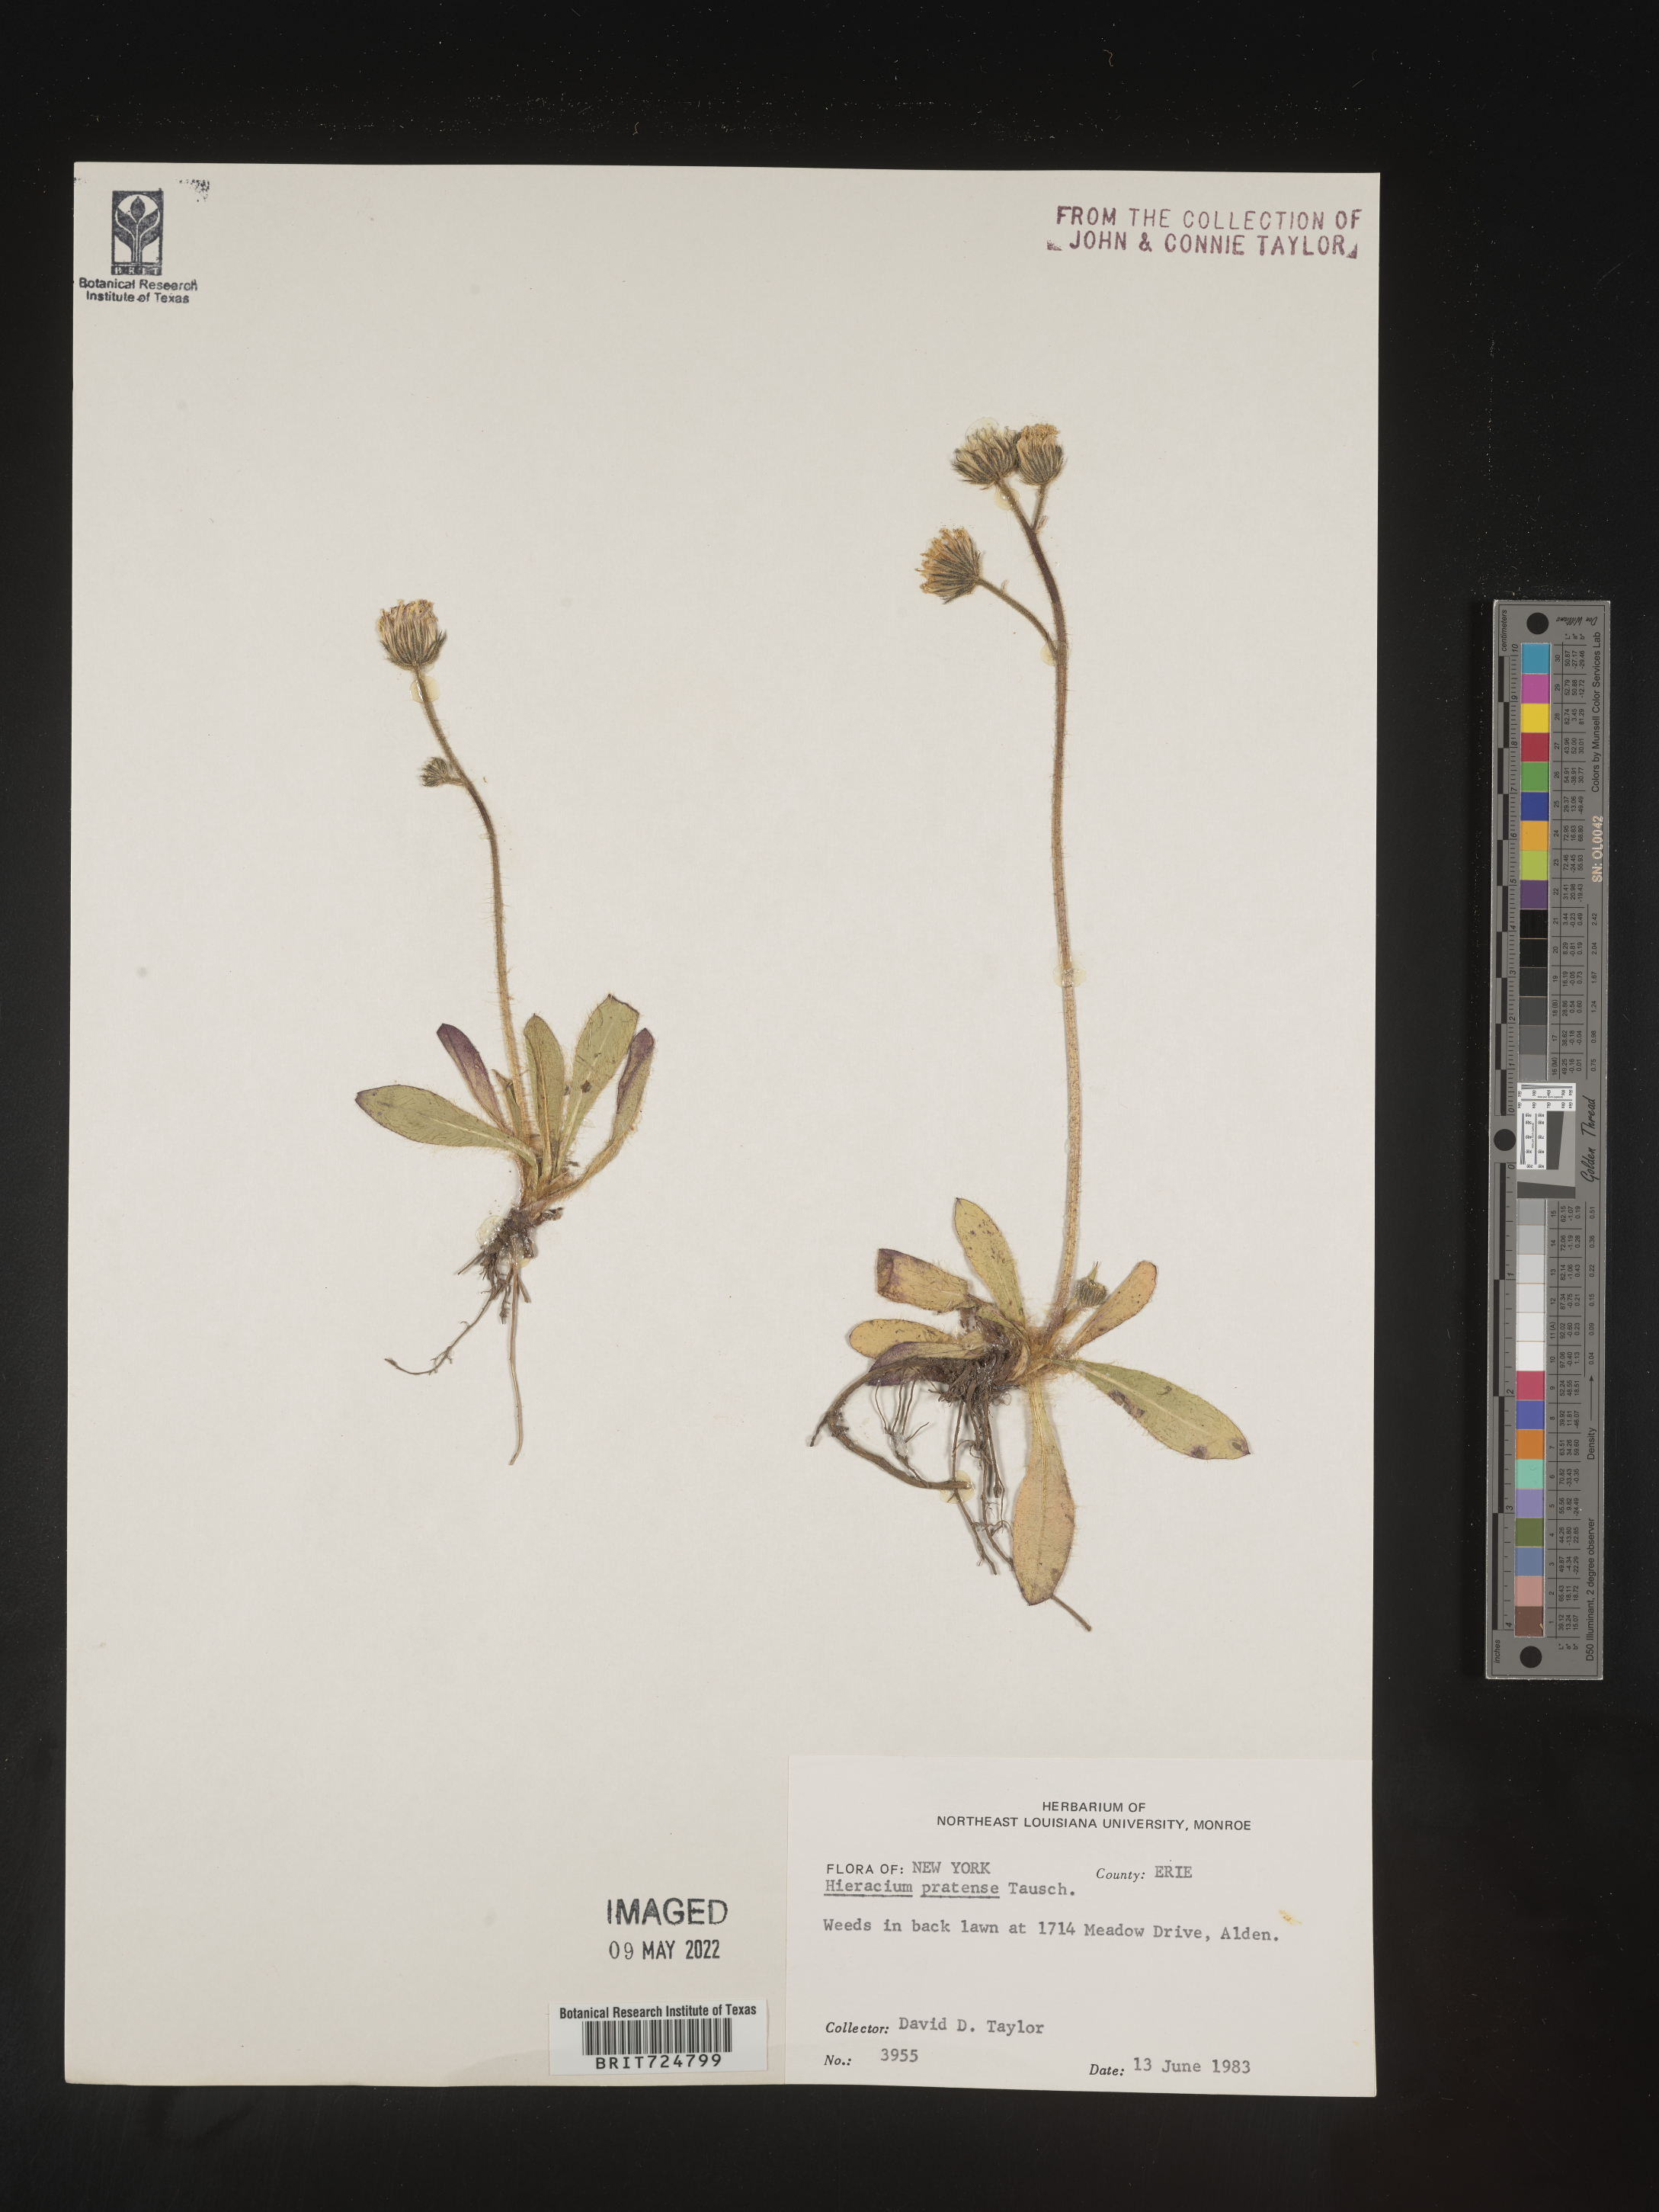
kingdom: Plantae
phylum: Tracheophyta
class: Magnoliopsida
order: Asterales
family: Asteraceae
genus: Hieracium
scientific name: Hieracium
